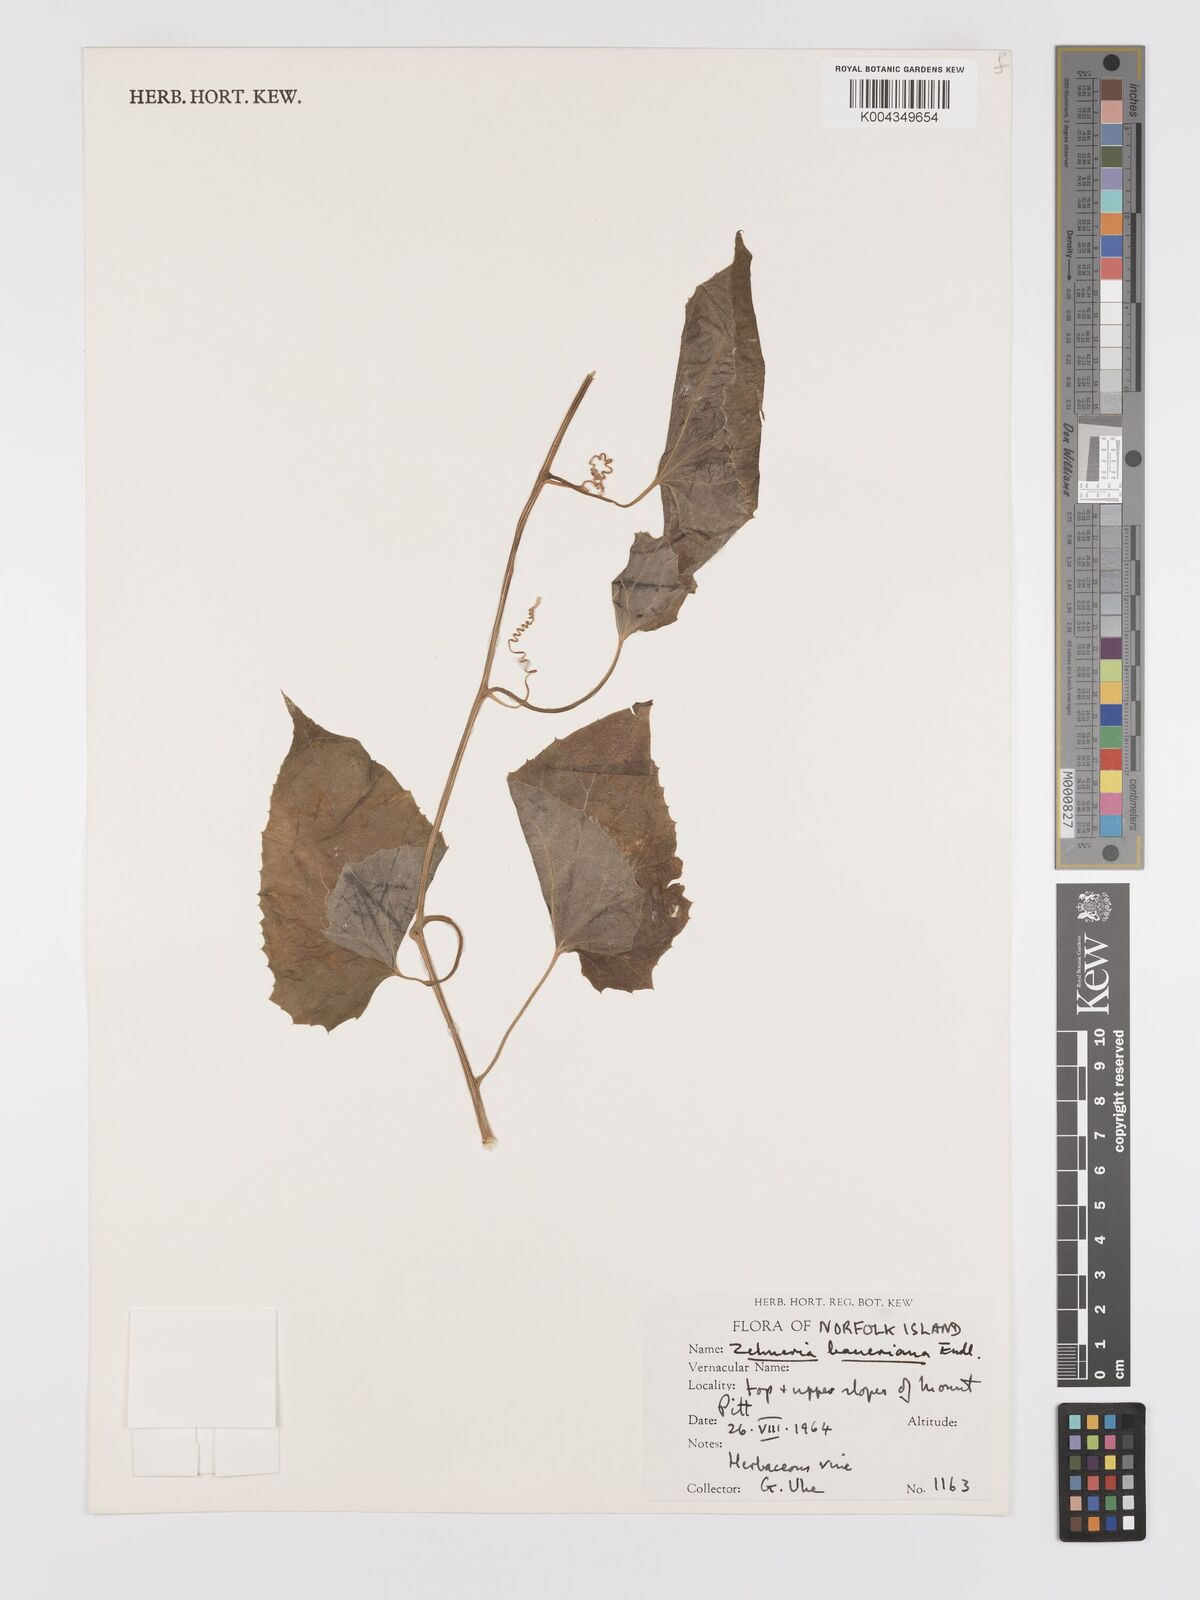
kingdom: Plantae
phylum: Tracheophyta
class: Magnoliopsida
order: Cucurbitales
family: Cucurbitaceae
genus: Zehneria
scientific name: Zehneria mucronata
